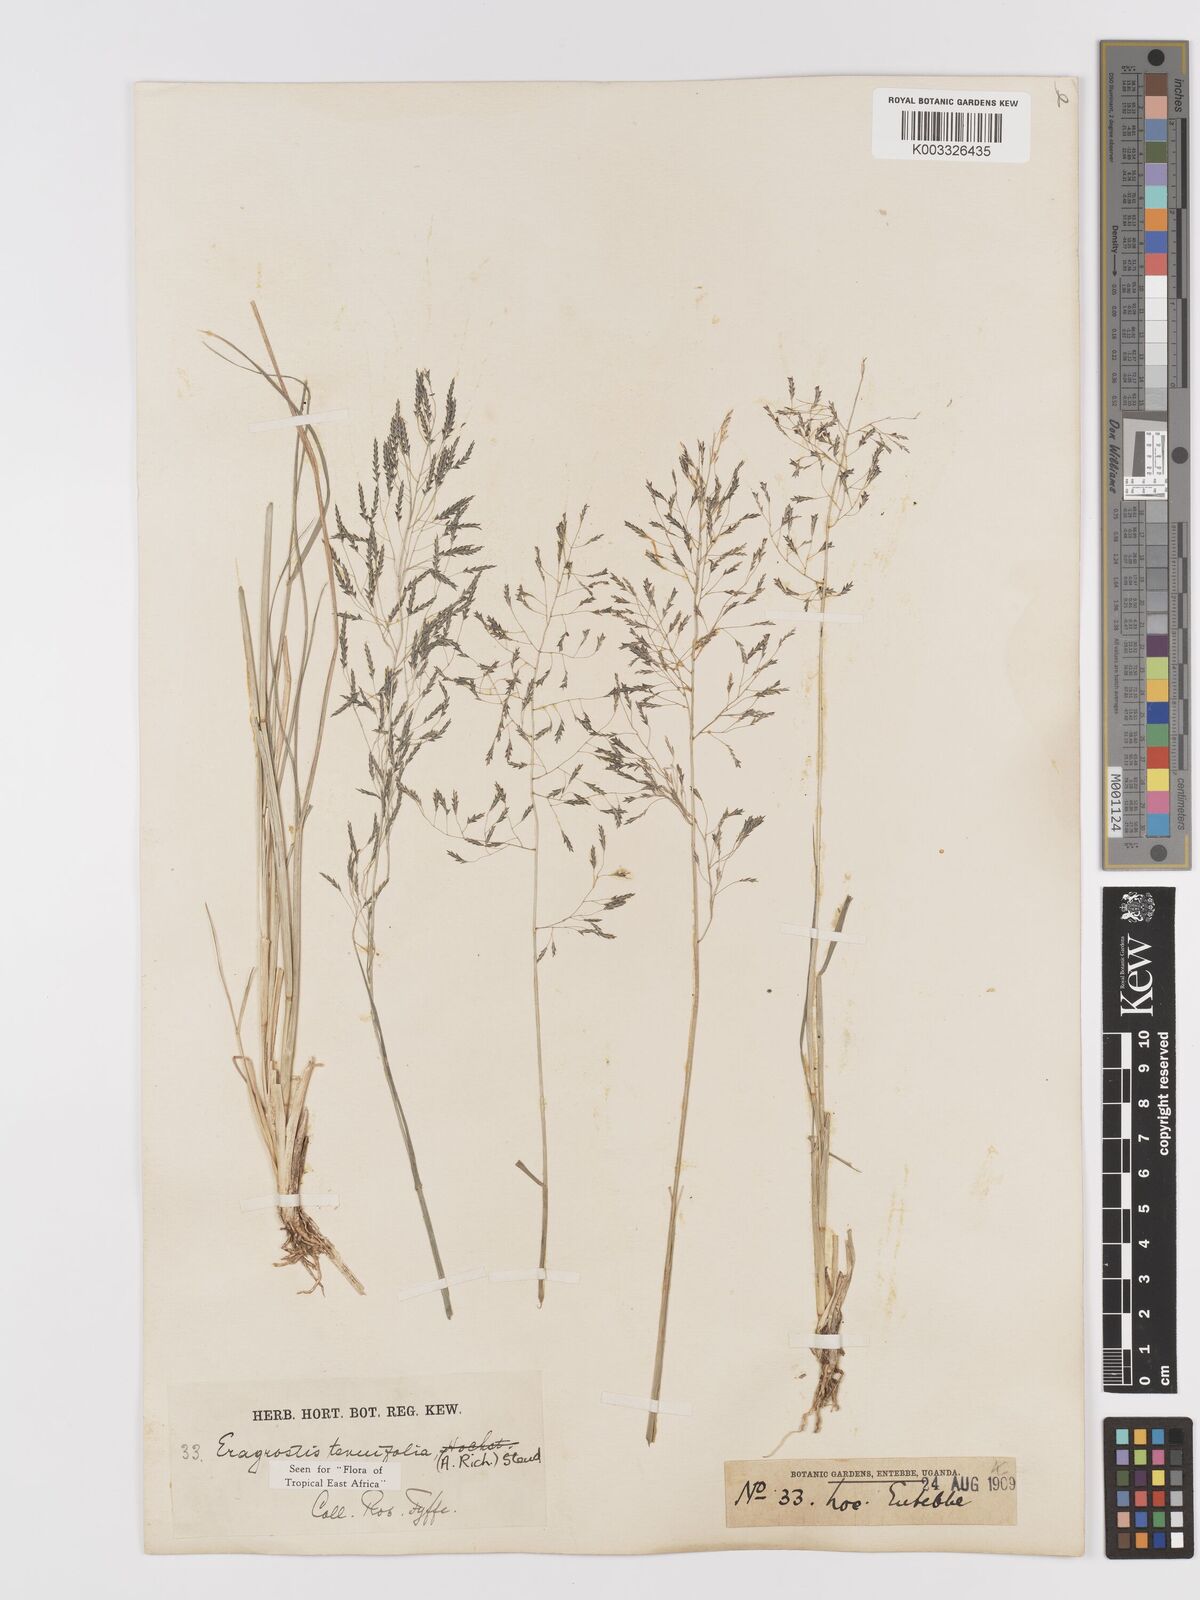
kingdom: Plantae
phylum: Tracheophyta
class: Liliopsida
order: Poales
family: Poaceae
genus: Eragrostis
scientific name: Eragrostis tenuifolia
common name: Elastic grass
